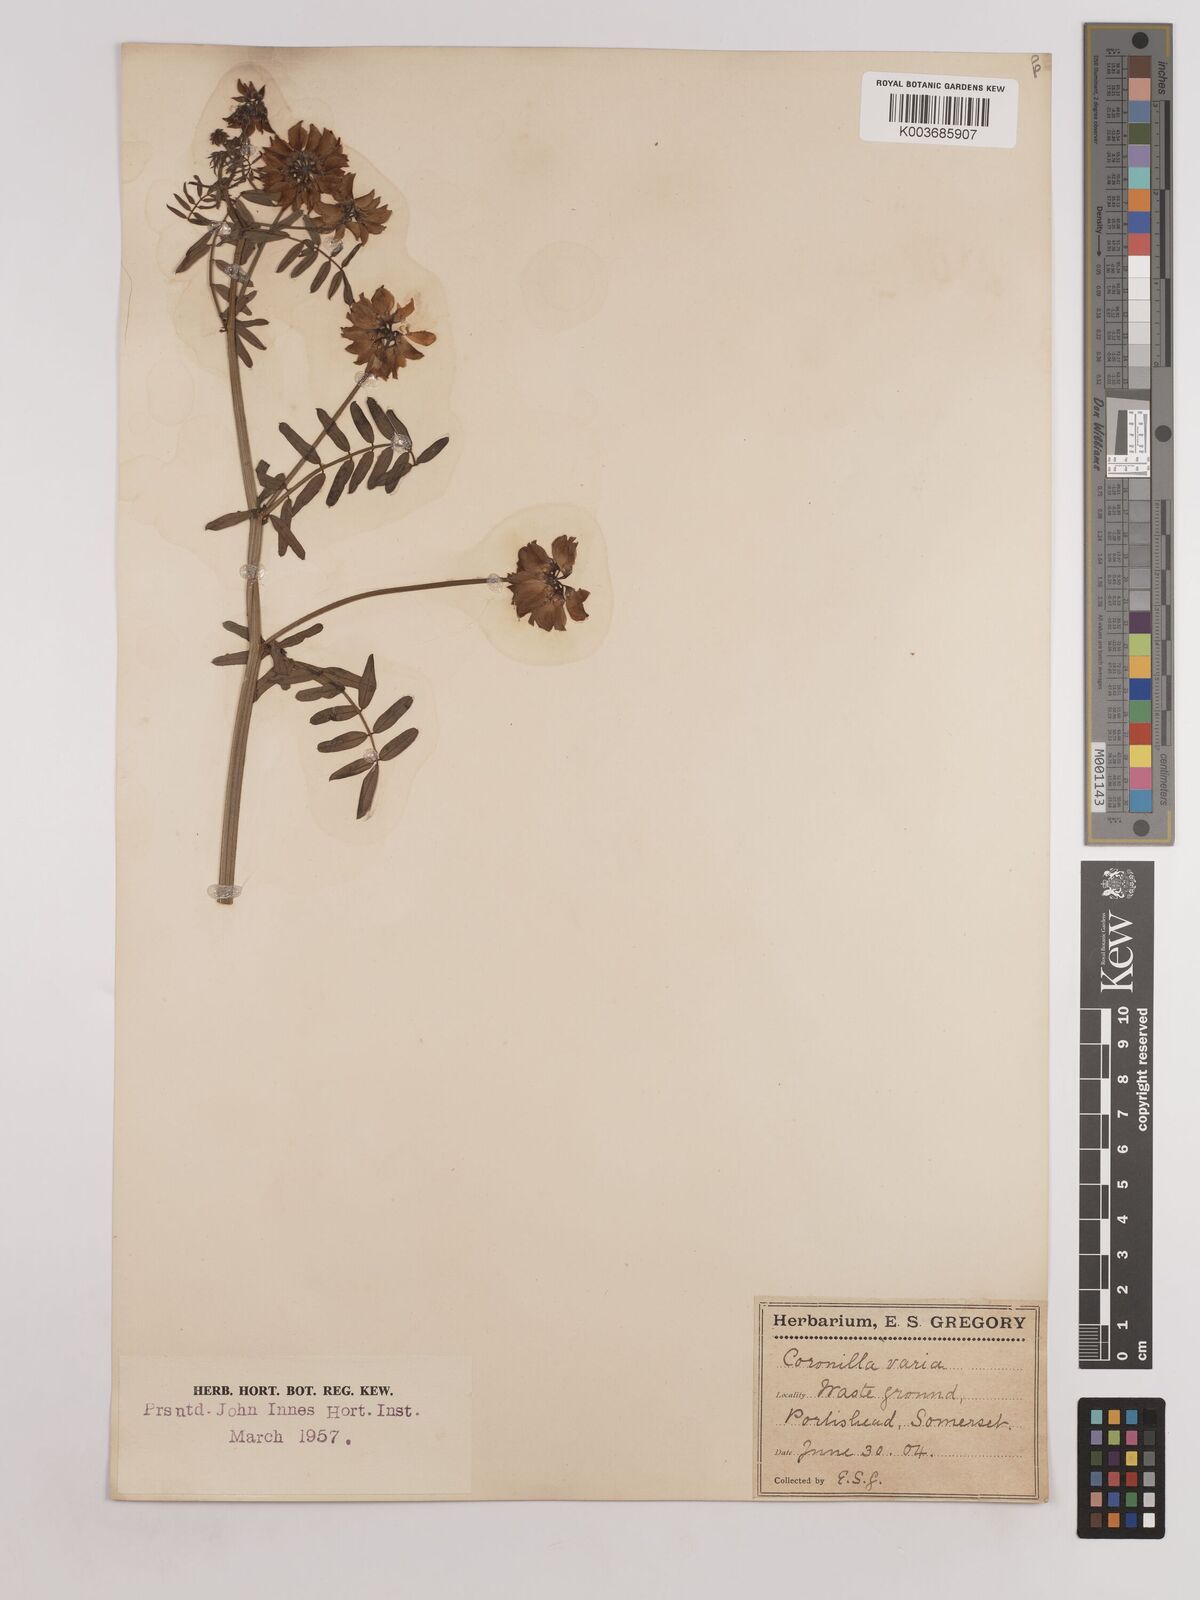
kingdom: Plantae
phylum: Tracheophyta
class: Magnoliopsida
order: Fabales
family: Fabaceae
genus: Coronilla
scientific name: Coronilla varia
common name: Crownvetch
